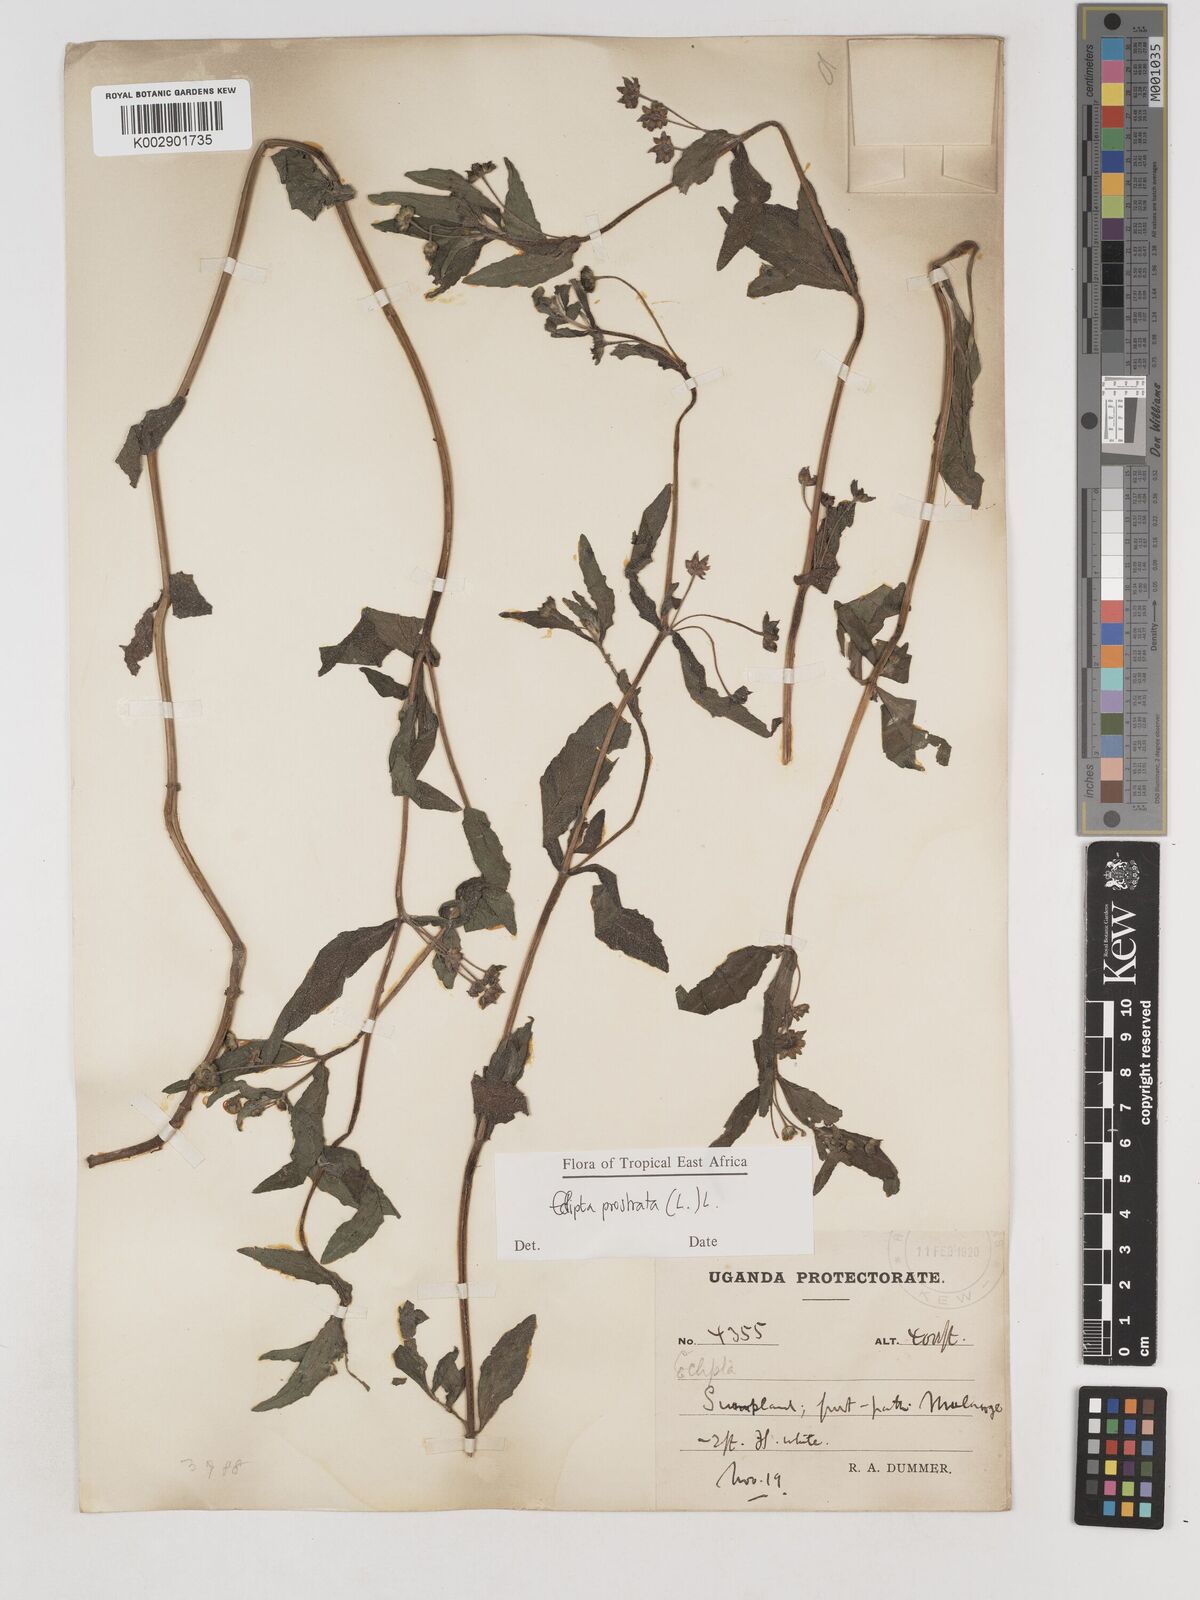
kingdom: Plantae
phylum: Tracheophyta
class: Magnoliopsida
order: Asterales
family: Asteraceae
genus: Eclipta
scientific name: Eclipta alba
